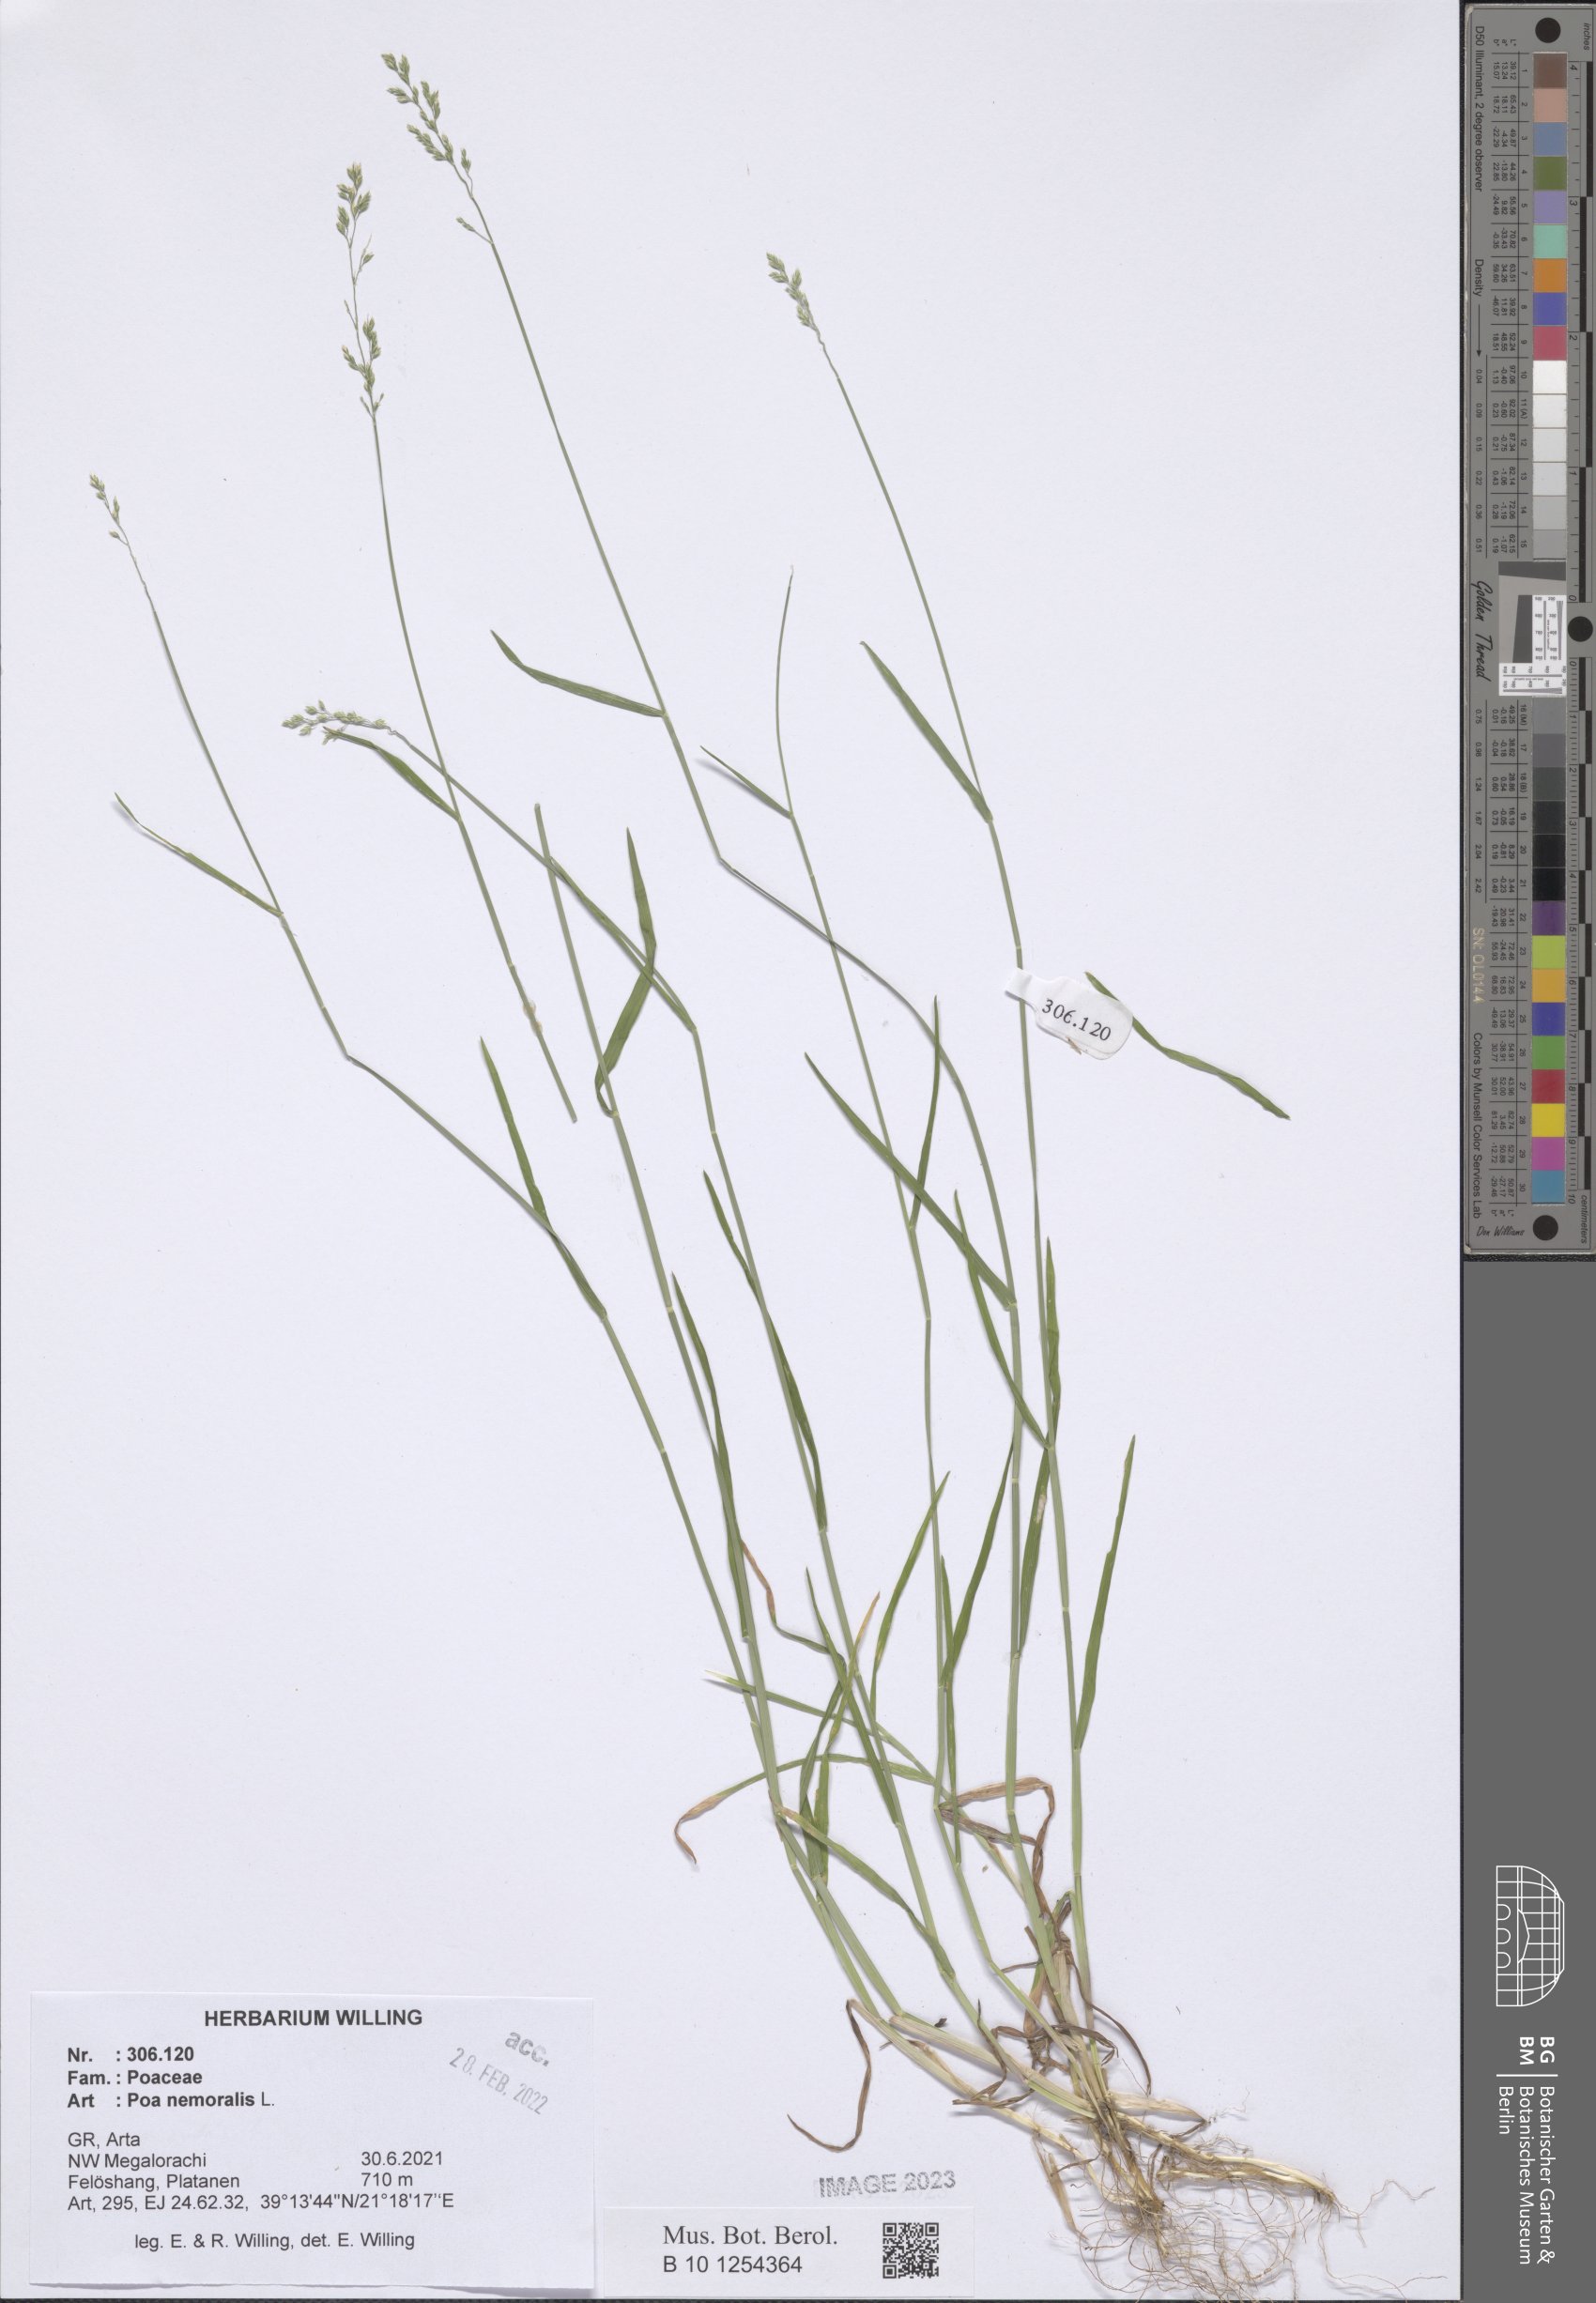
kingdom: Plantae
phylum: Tracheophyta
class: Liliopsida
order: Poales
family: Poaceae
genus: Poa
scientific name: Poa nemoralis
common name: Wood bluegrass
